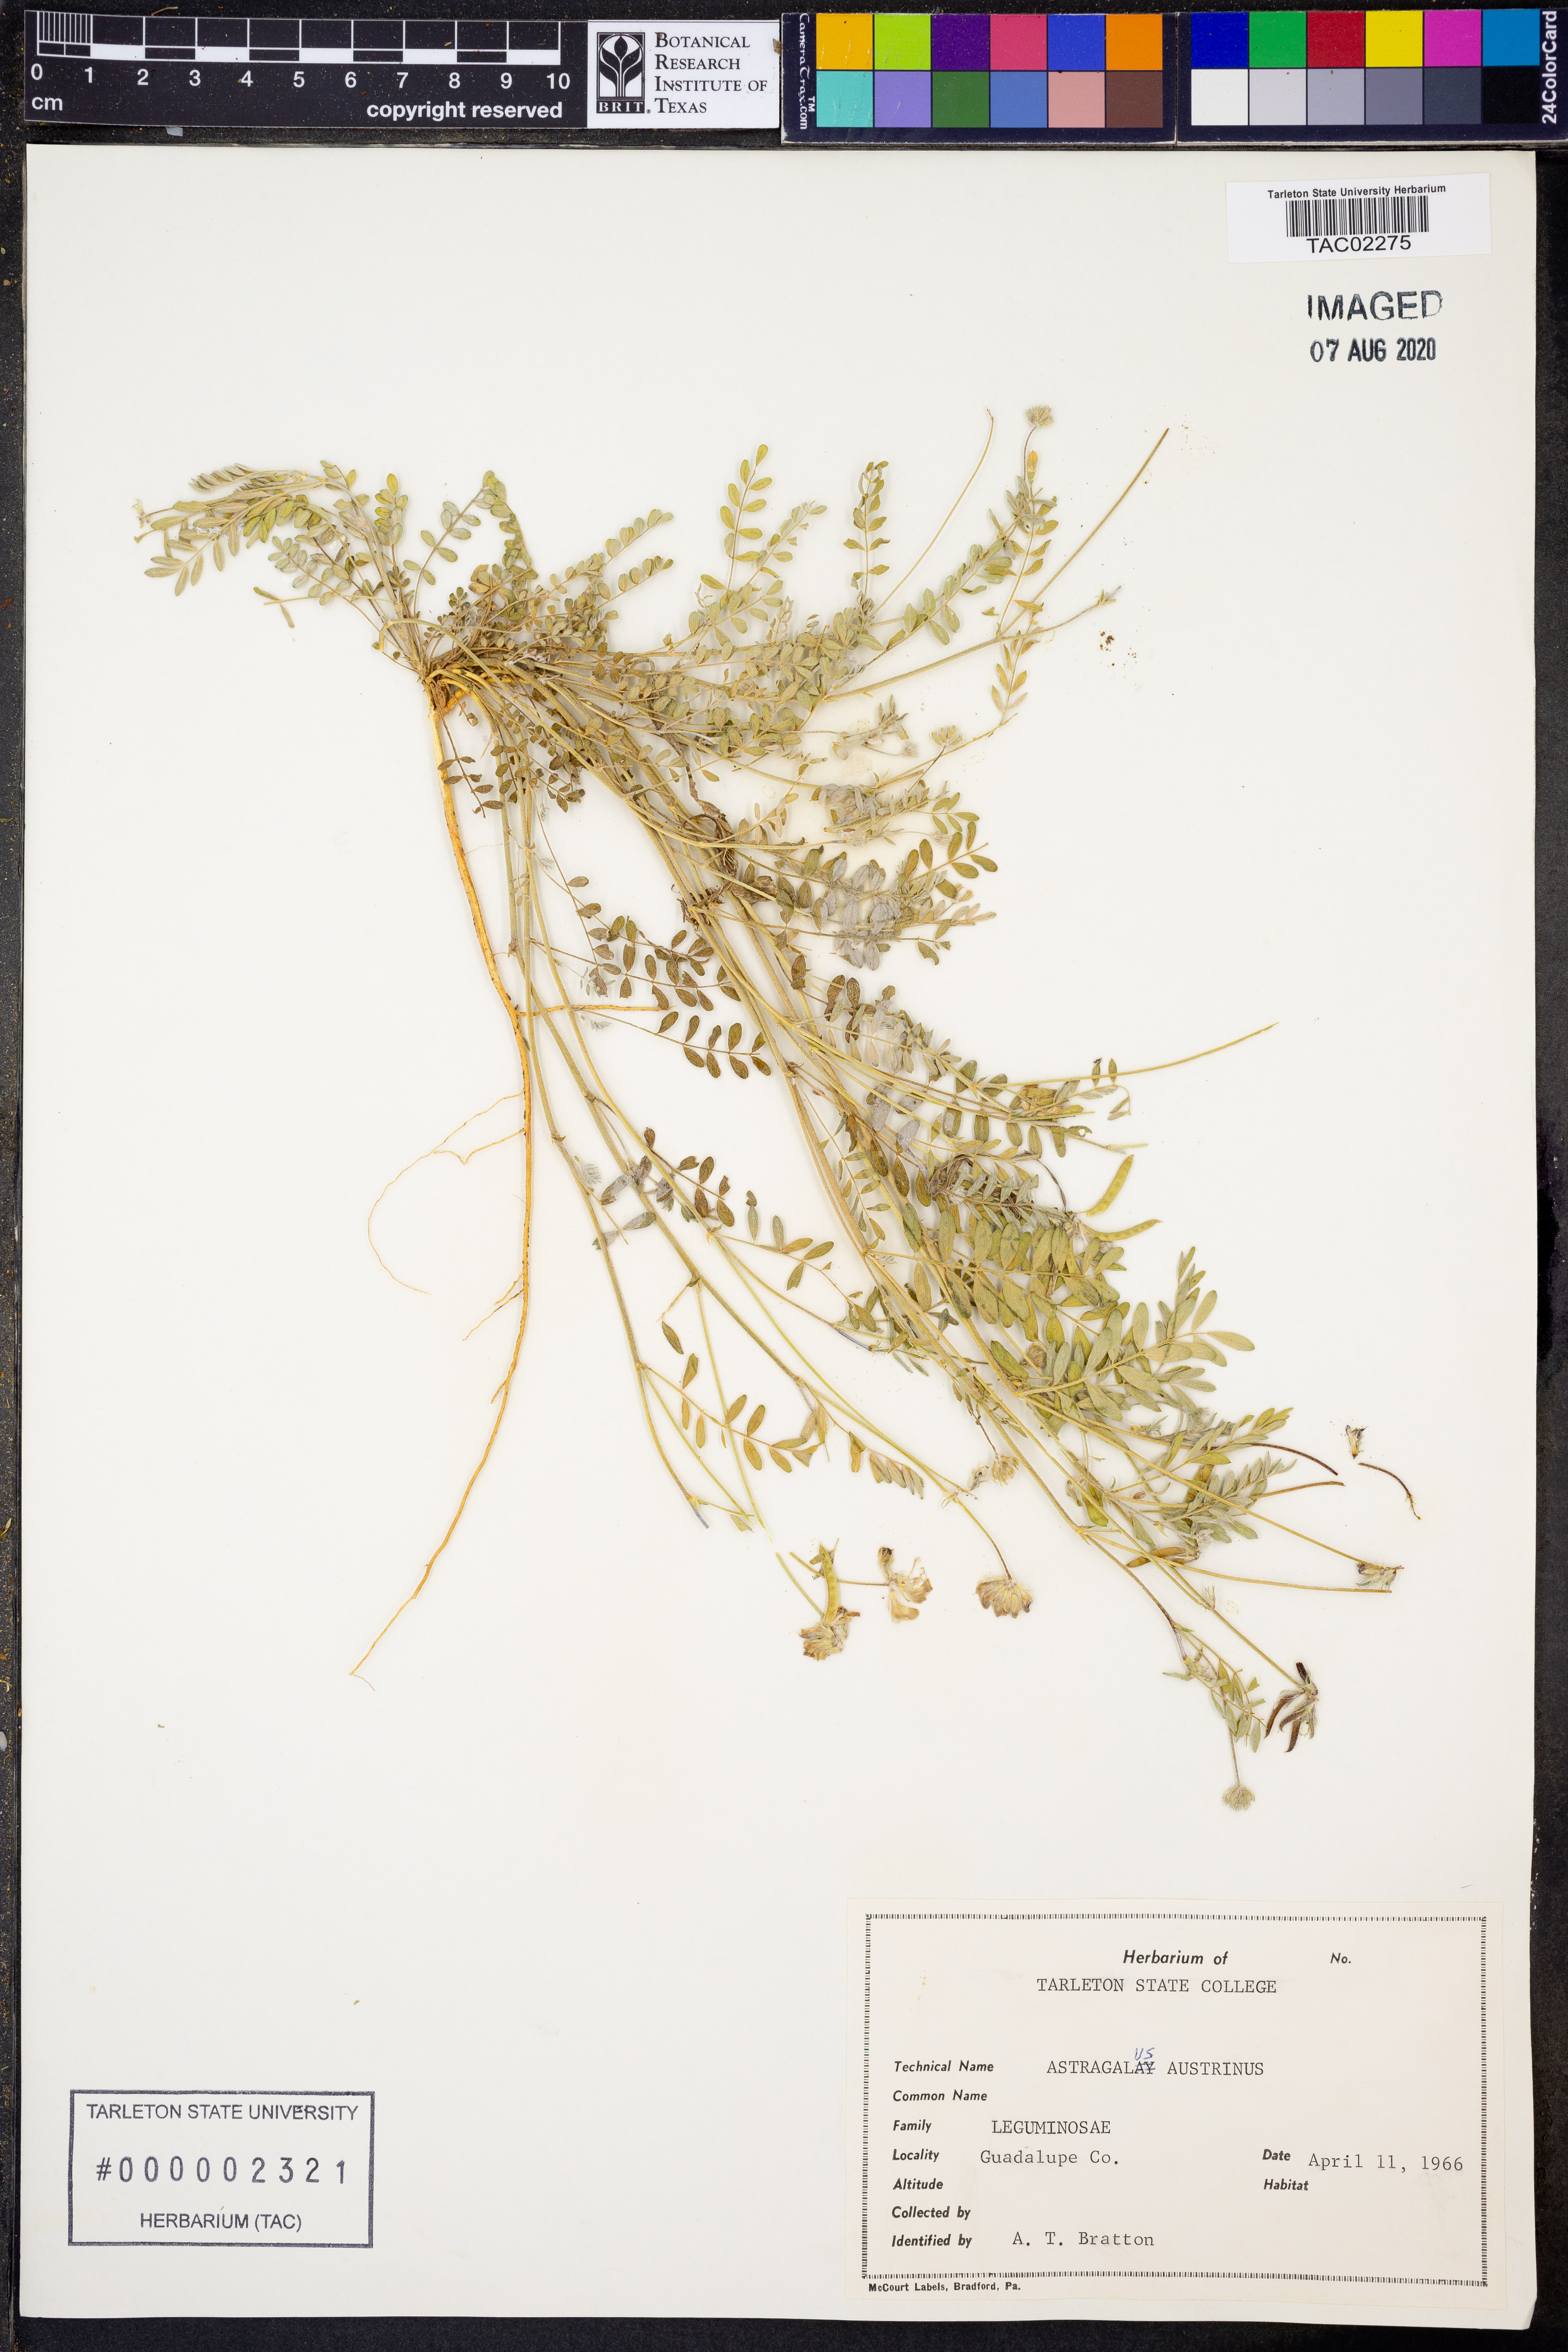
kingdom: Plantae
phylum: Tracheophyta
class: Magnoliopsida
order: Fabales
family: Fabaceae
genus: Astragalus
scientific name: Astragalus nuttallianus
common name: Smallflowered milkvetch
